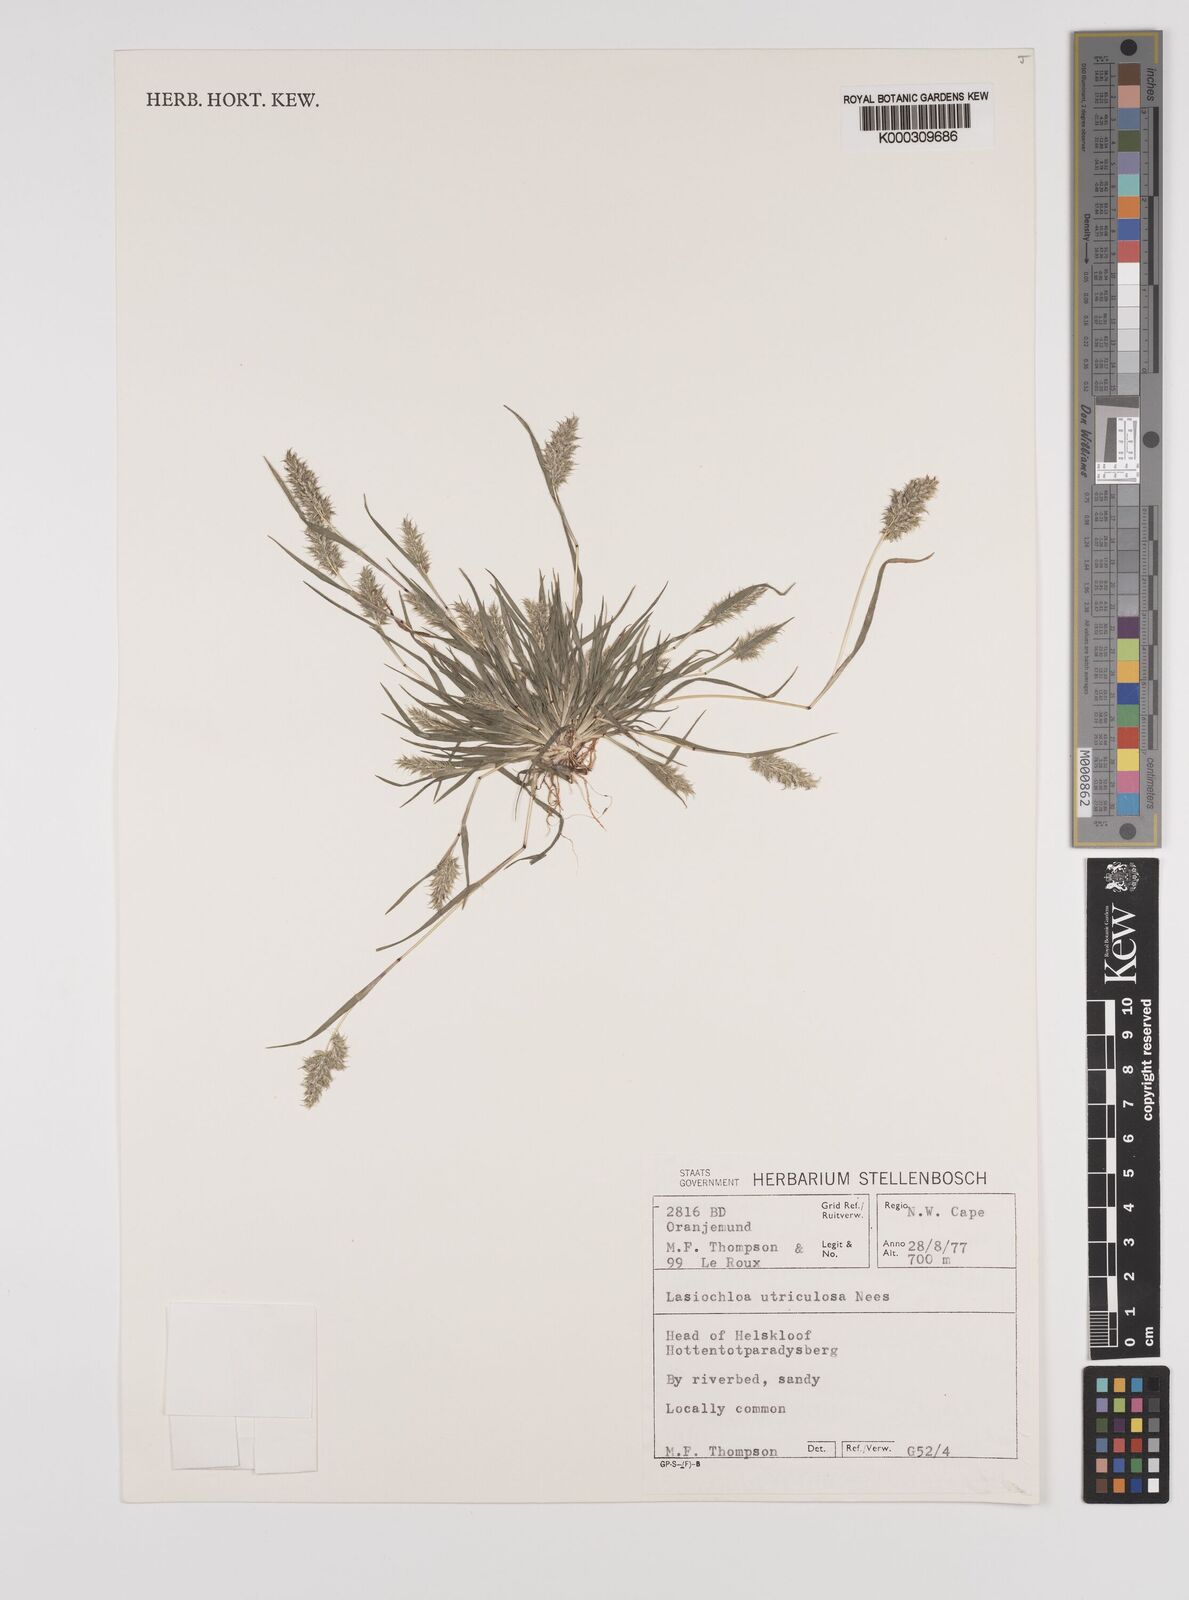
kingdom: Plantae
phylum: Tracheophyta
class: Liliopsida
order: Poales
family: Poaceae
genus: Tribolium
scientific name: Tribolium utriculosum
